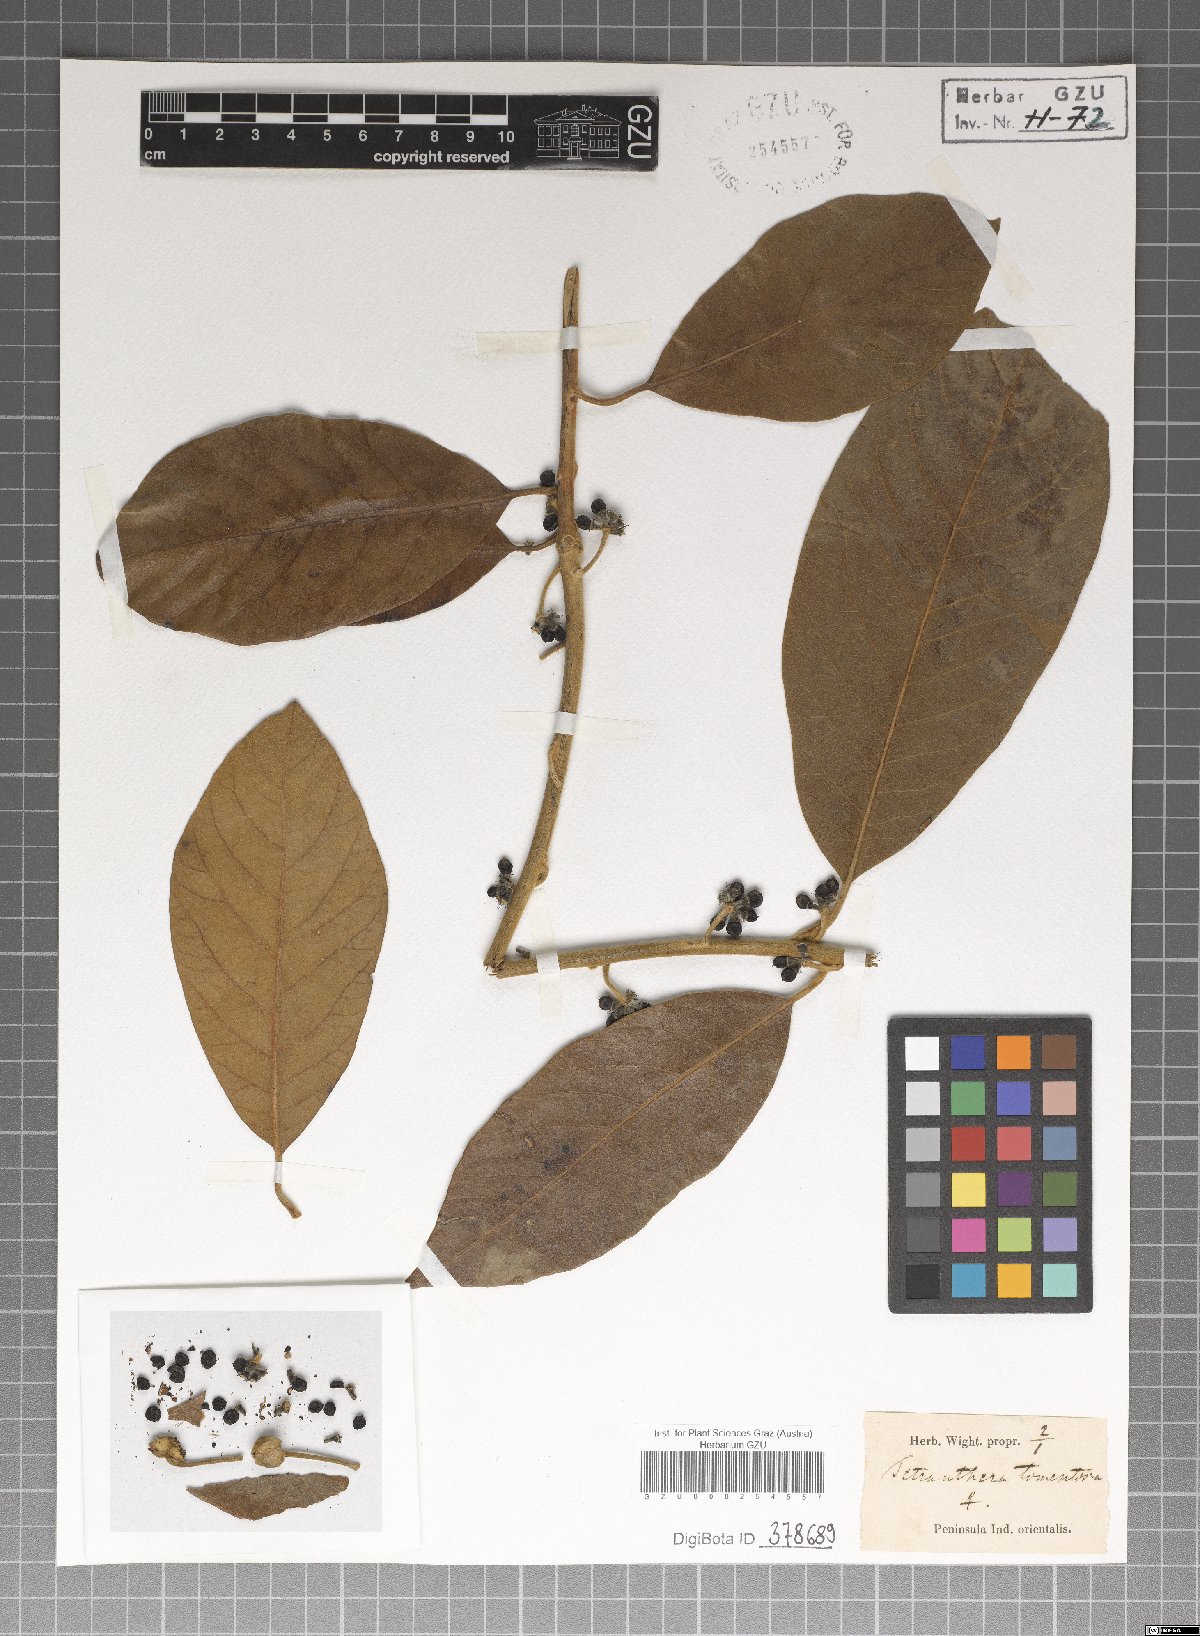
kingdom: Plantae
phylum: Tracheophyta
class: Magnoliopsida
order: Laurales
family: Lauraceae
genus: Litsea
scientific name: Litsea glutinosa
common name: Indian-laurel
